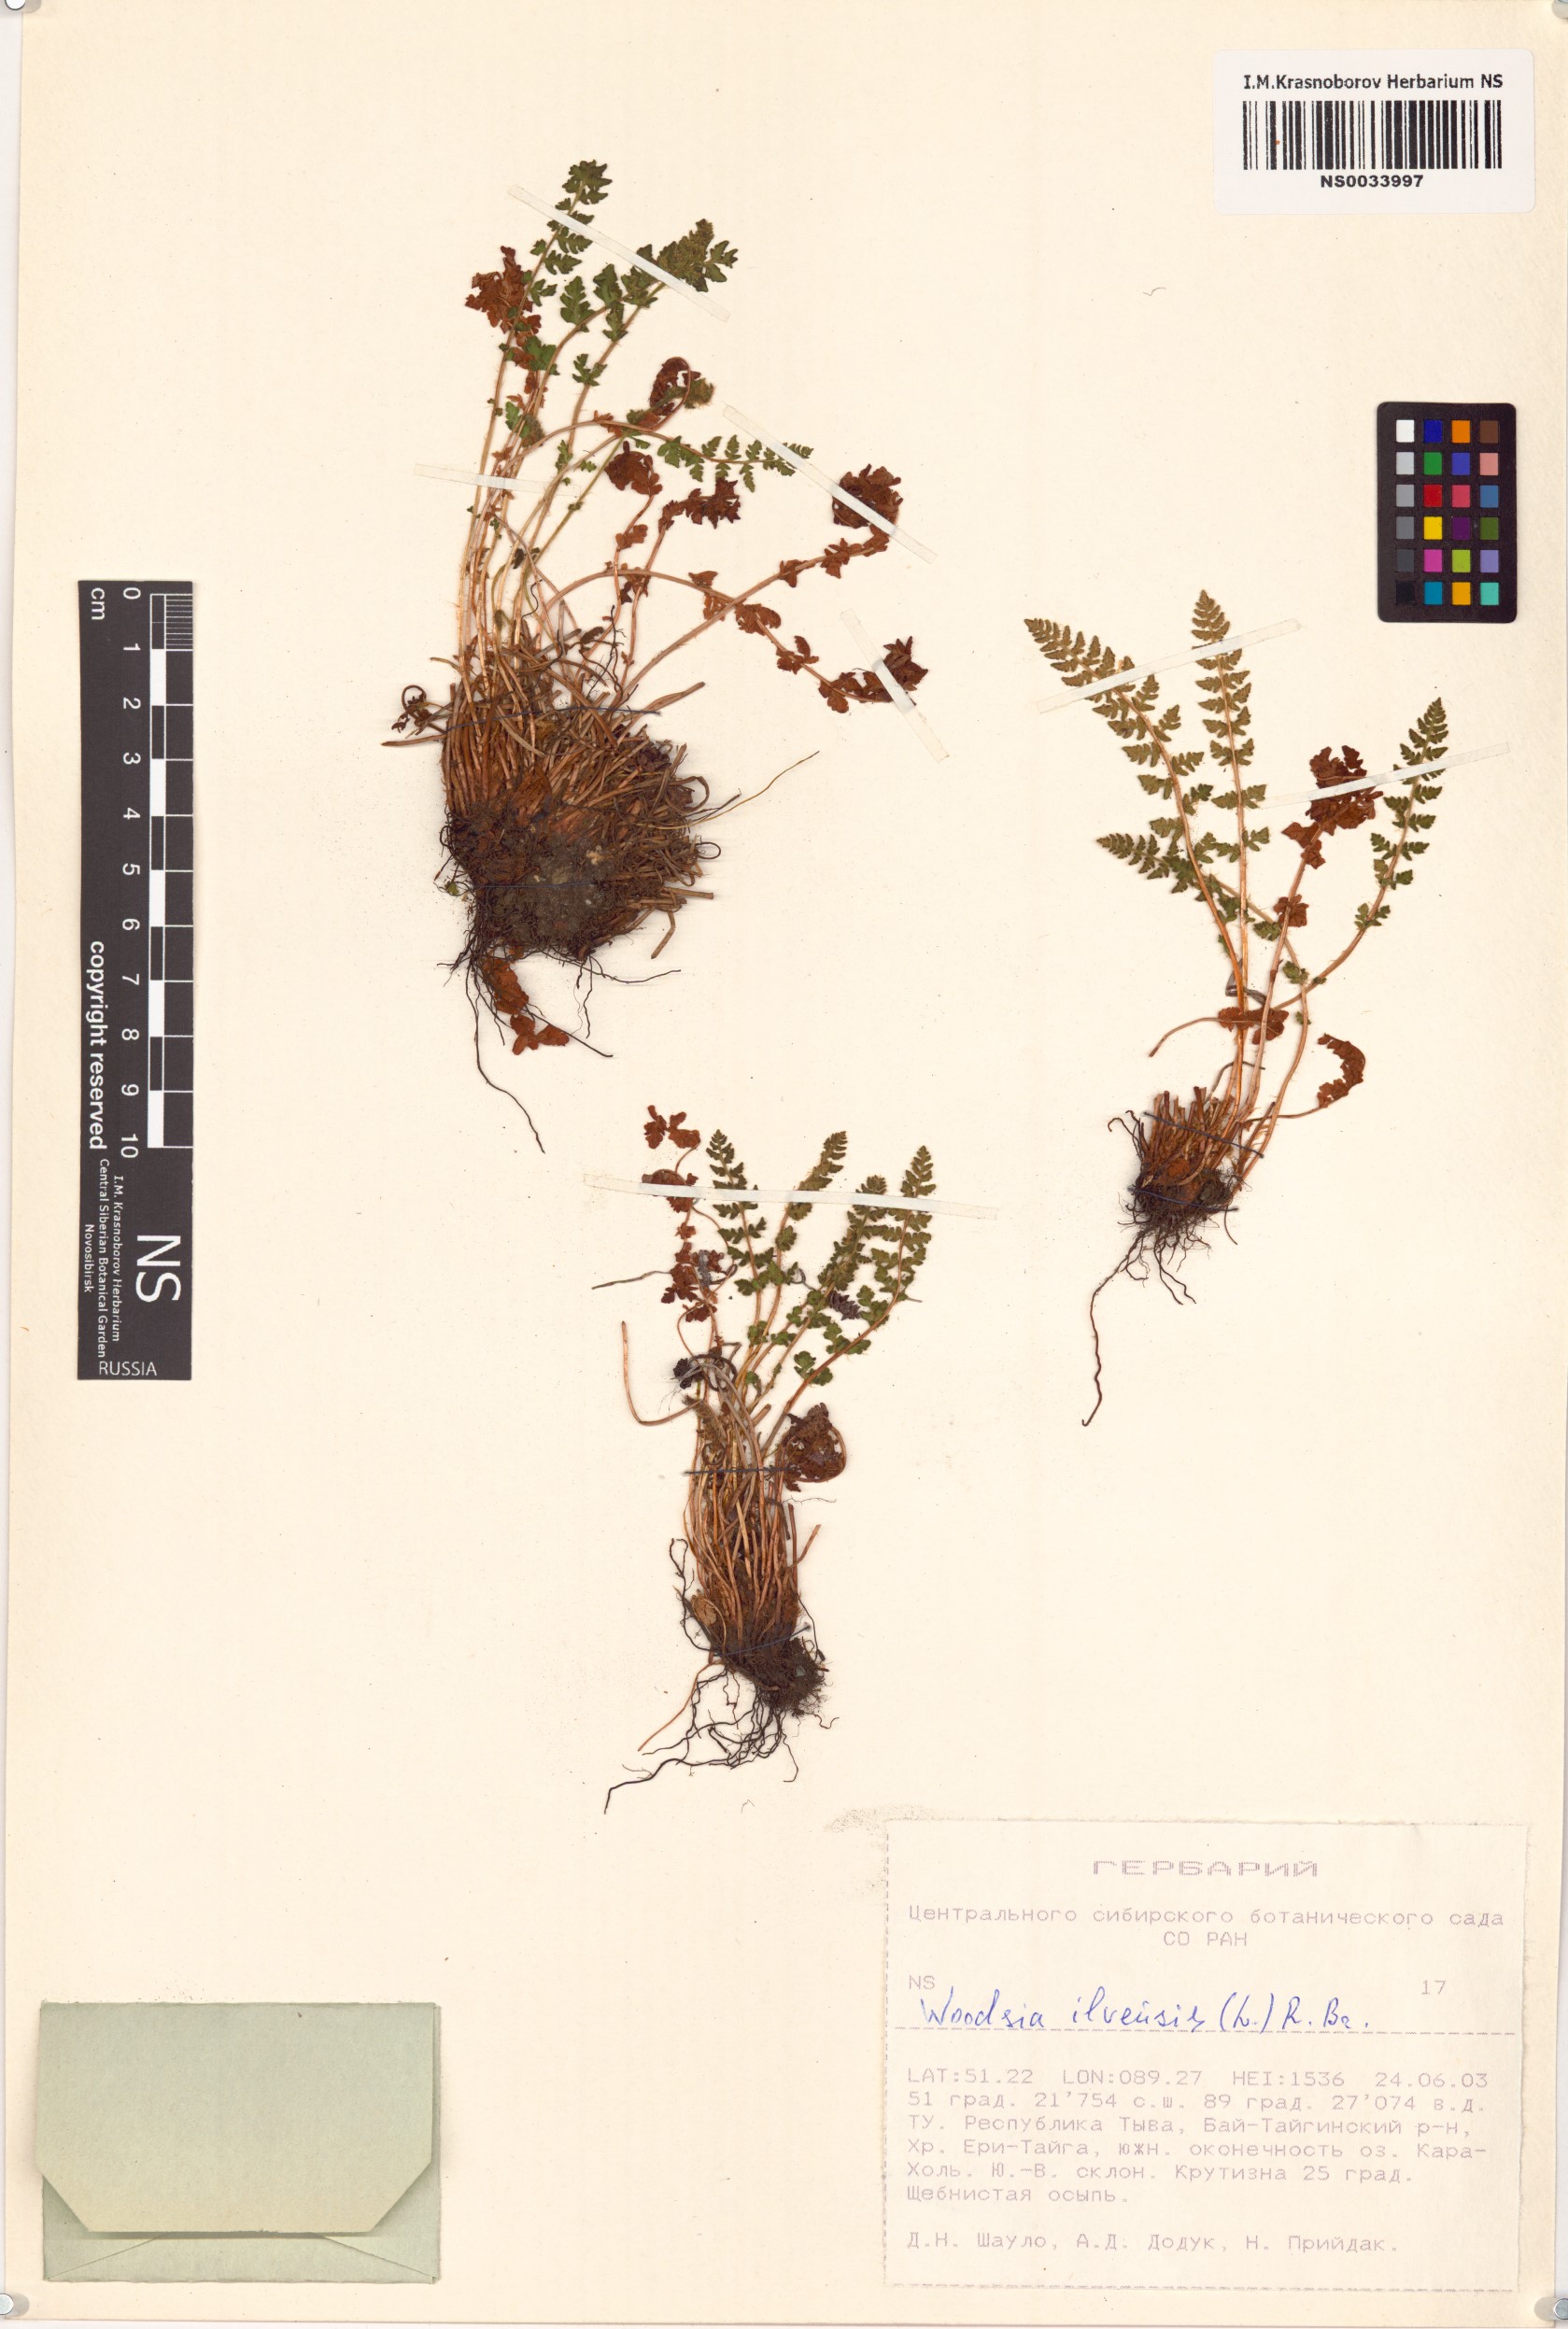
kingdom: Plantae
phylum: Tracheophyta
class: Polypodiopsida
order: Polypodiales
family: Woodsiaceae
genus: Woodsia
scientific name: Woodsia ilvensis
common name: Fragrant woodsia
